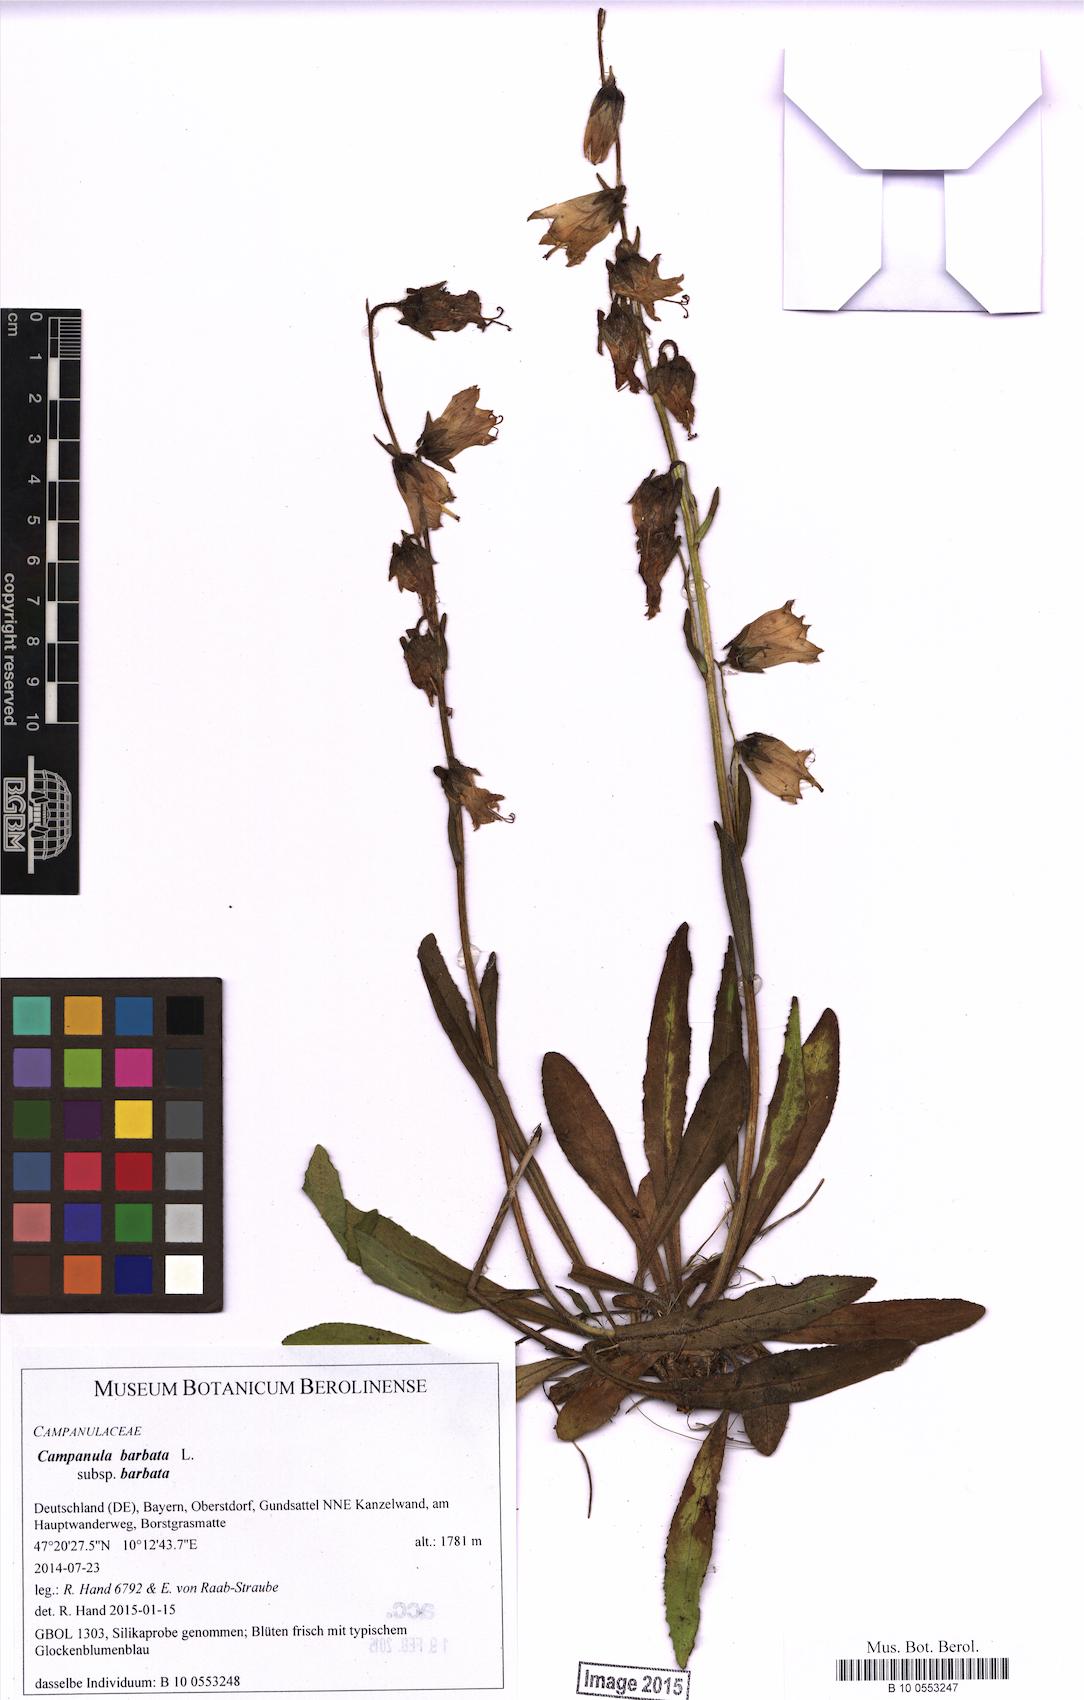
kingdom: Plantae
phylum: Tracheophyta
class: Magnoliopsida
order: Asterales
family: Campanulaceae
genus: Campanula
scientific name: Campanula barbata
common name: Bearded bellflower
